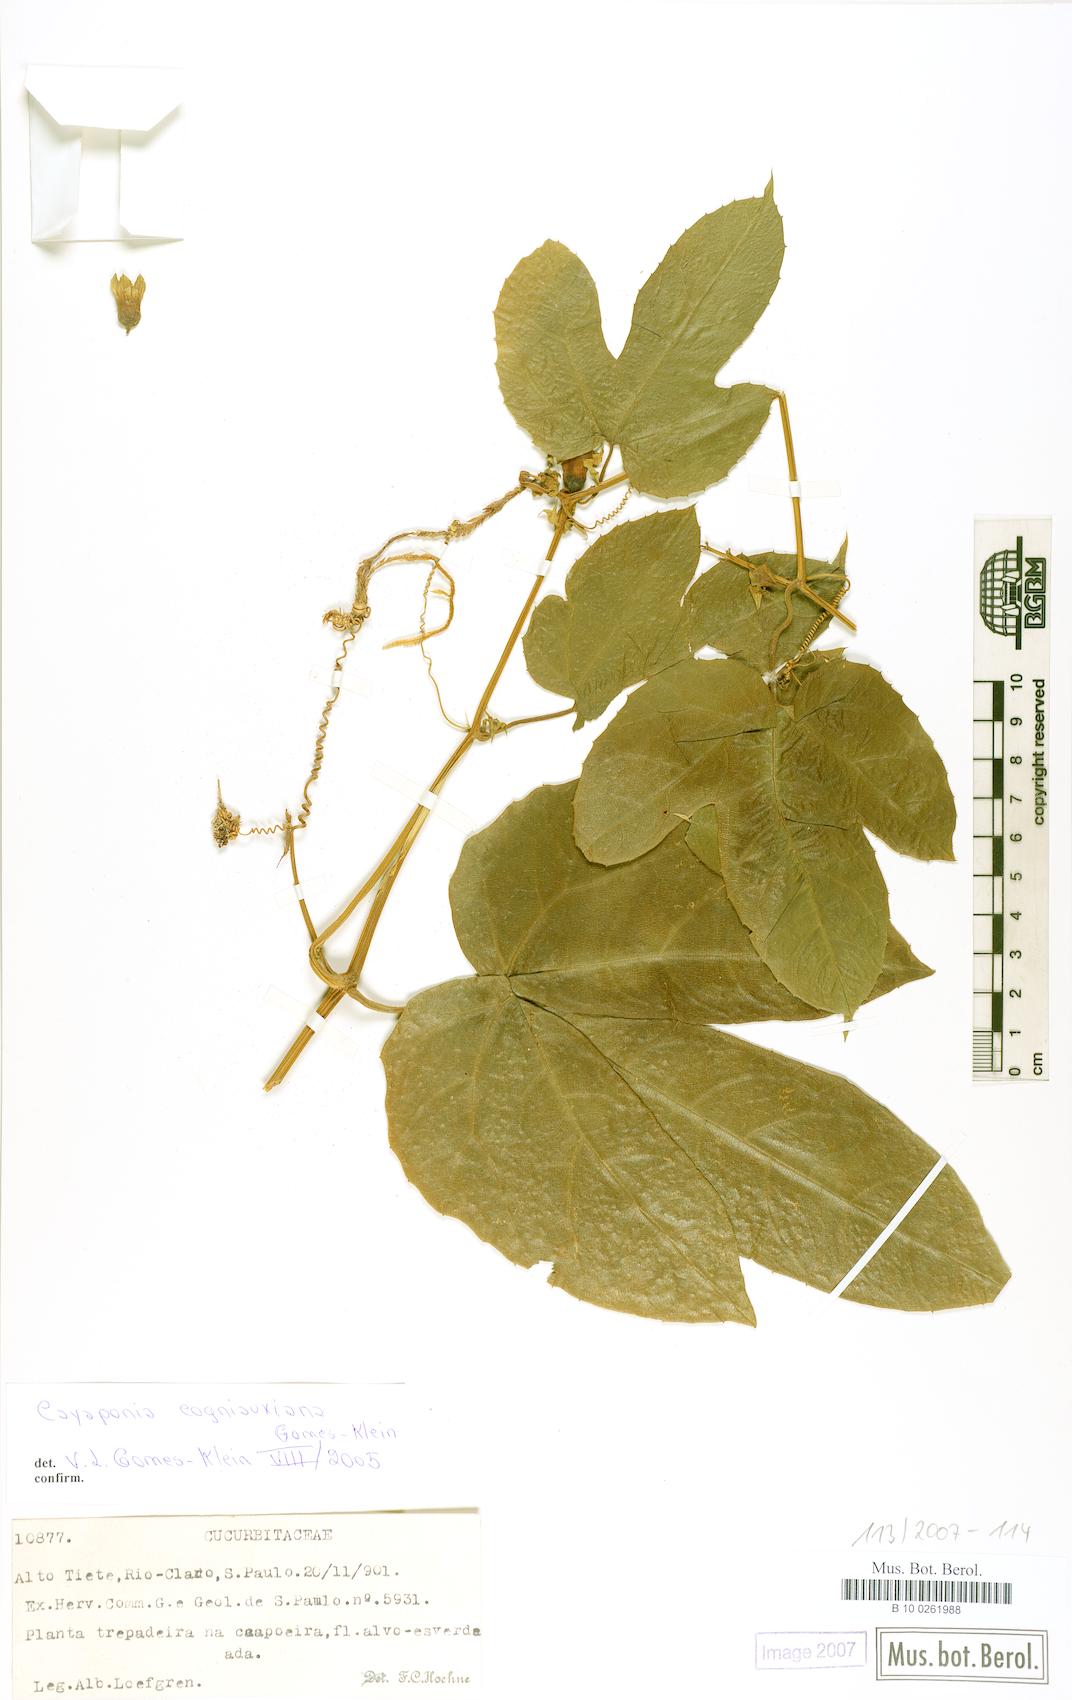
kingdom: Plantae
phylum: Tracheophyta
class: Magnoliopsida
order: Cucurbitales
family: Cucurbitaceae
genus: Cayaponia
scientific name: Cayaponia cogniauxiana
